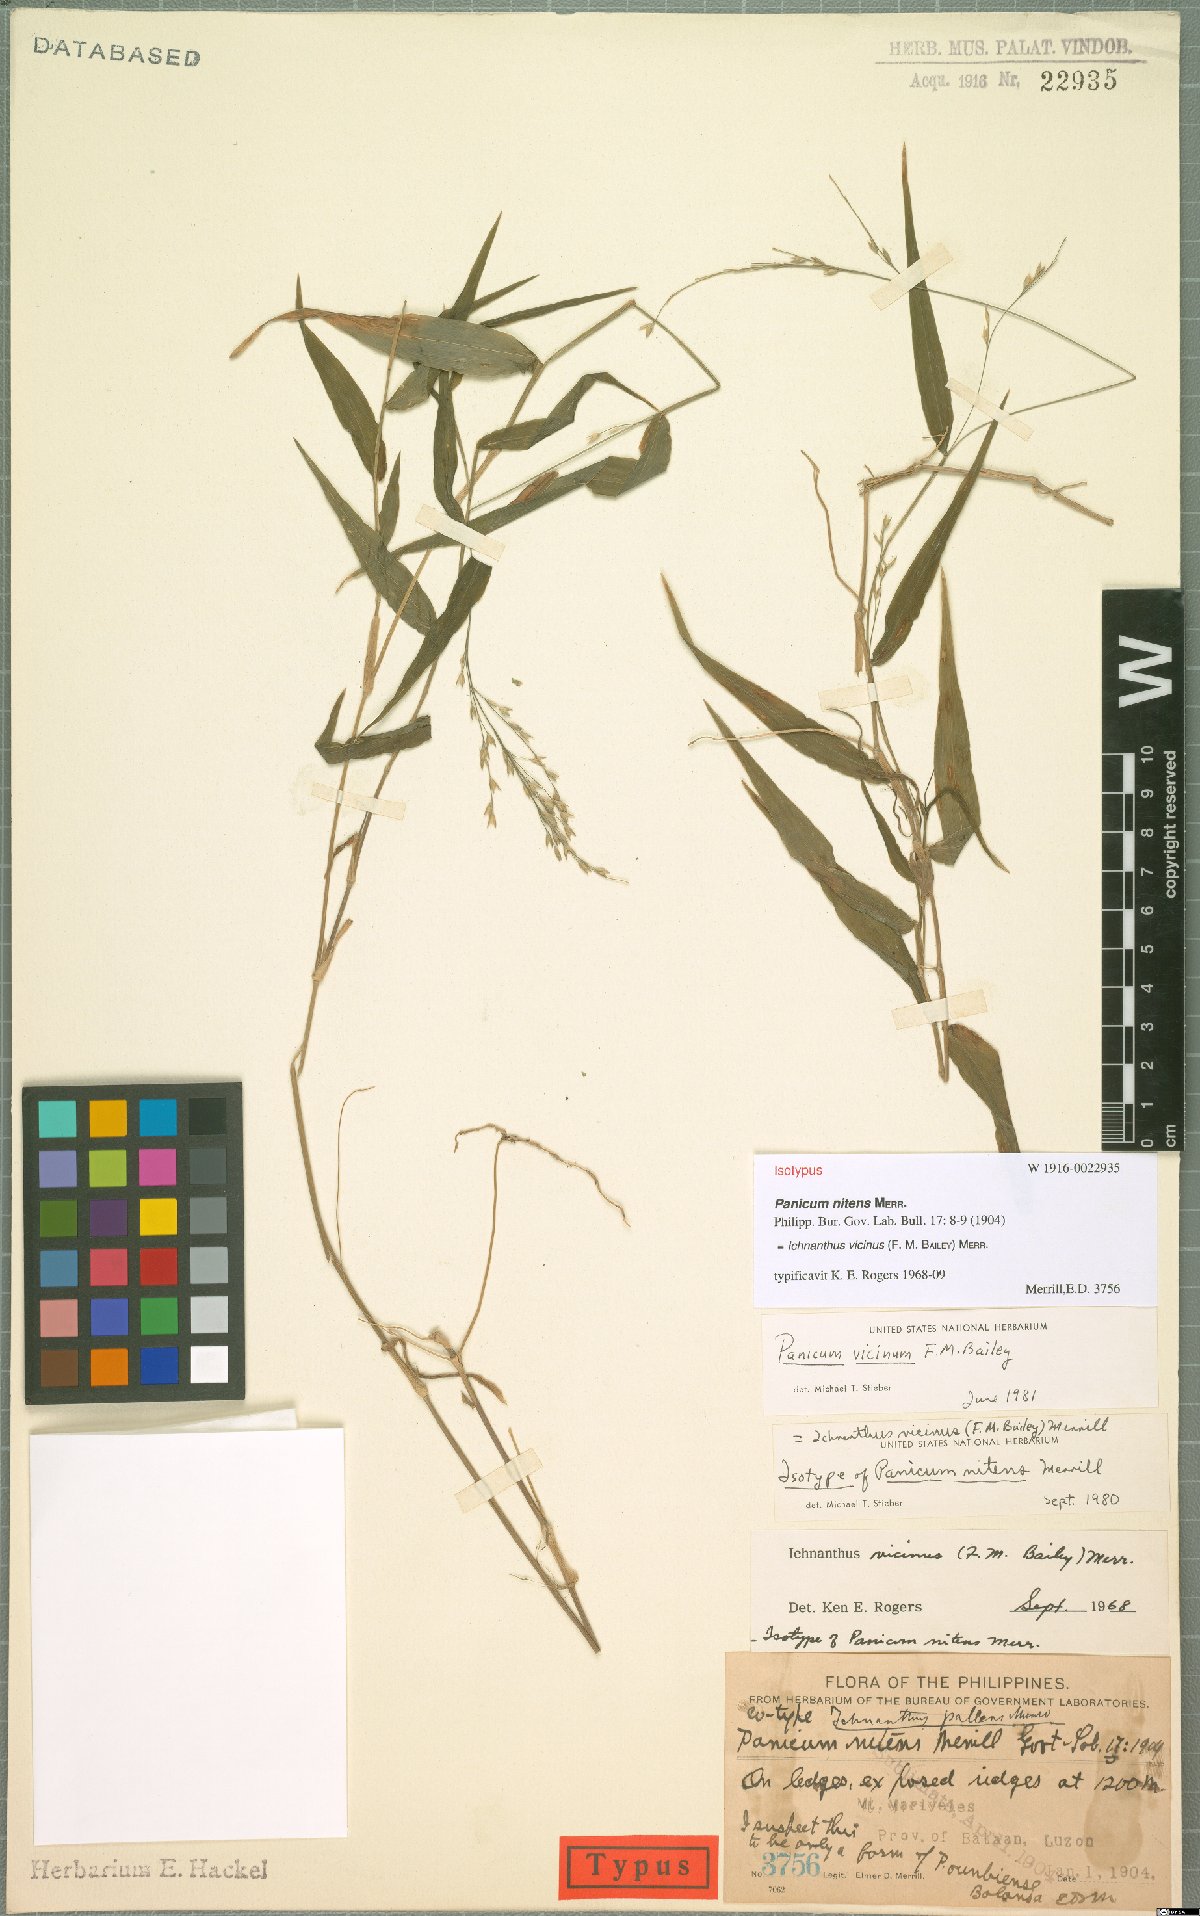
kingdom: Plantae
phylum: Tracheophyta
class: Liliopsida
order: Poales
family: Poaceae
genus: Ichnanthus
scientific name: Ichnanthus pallens
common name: Water grass
